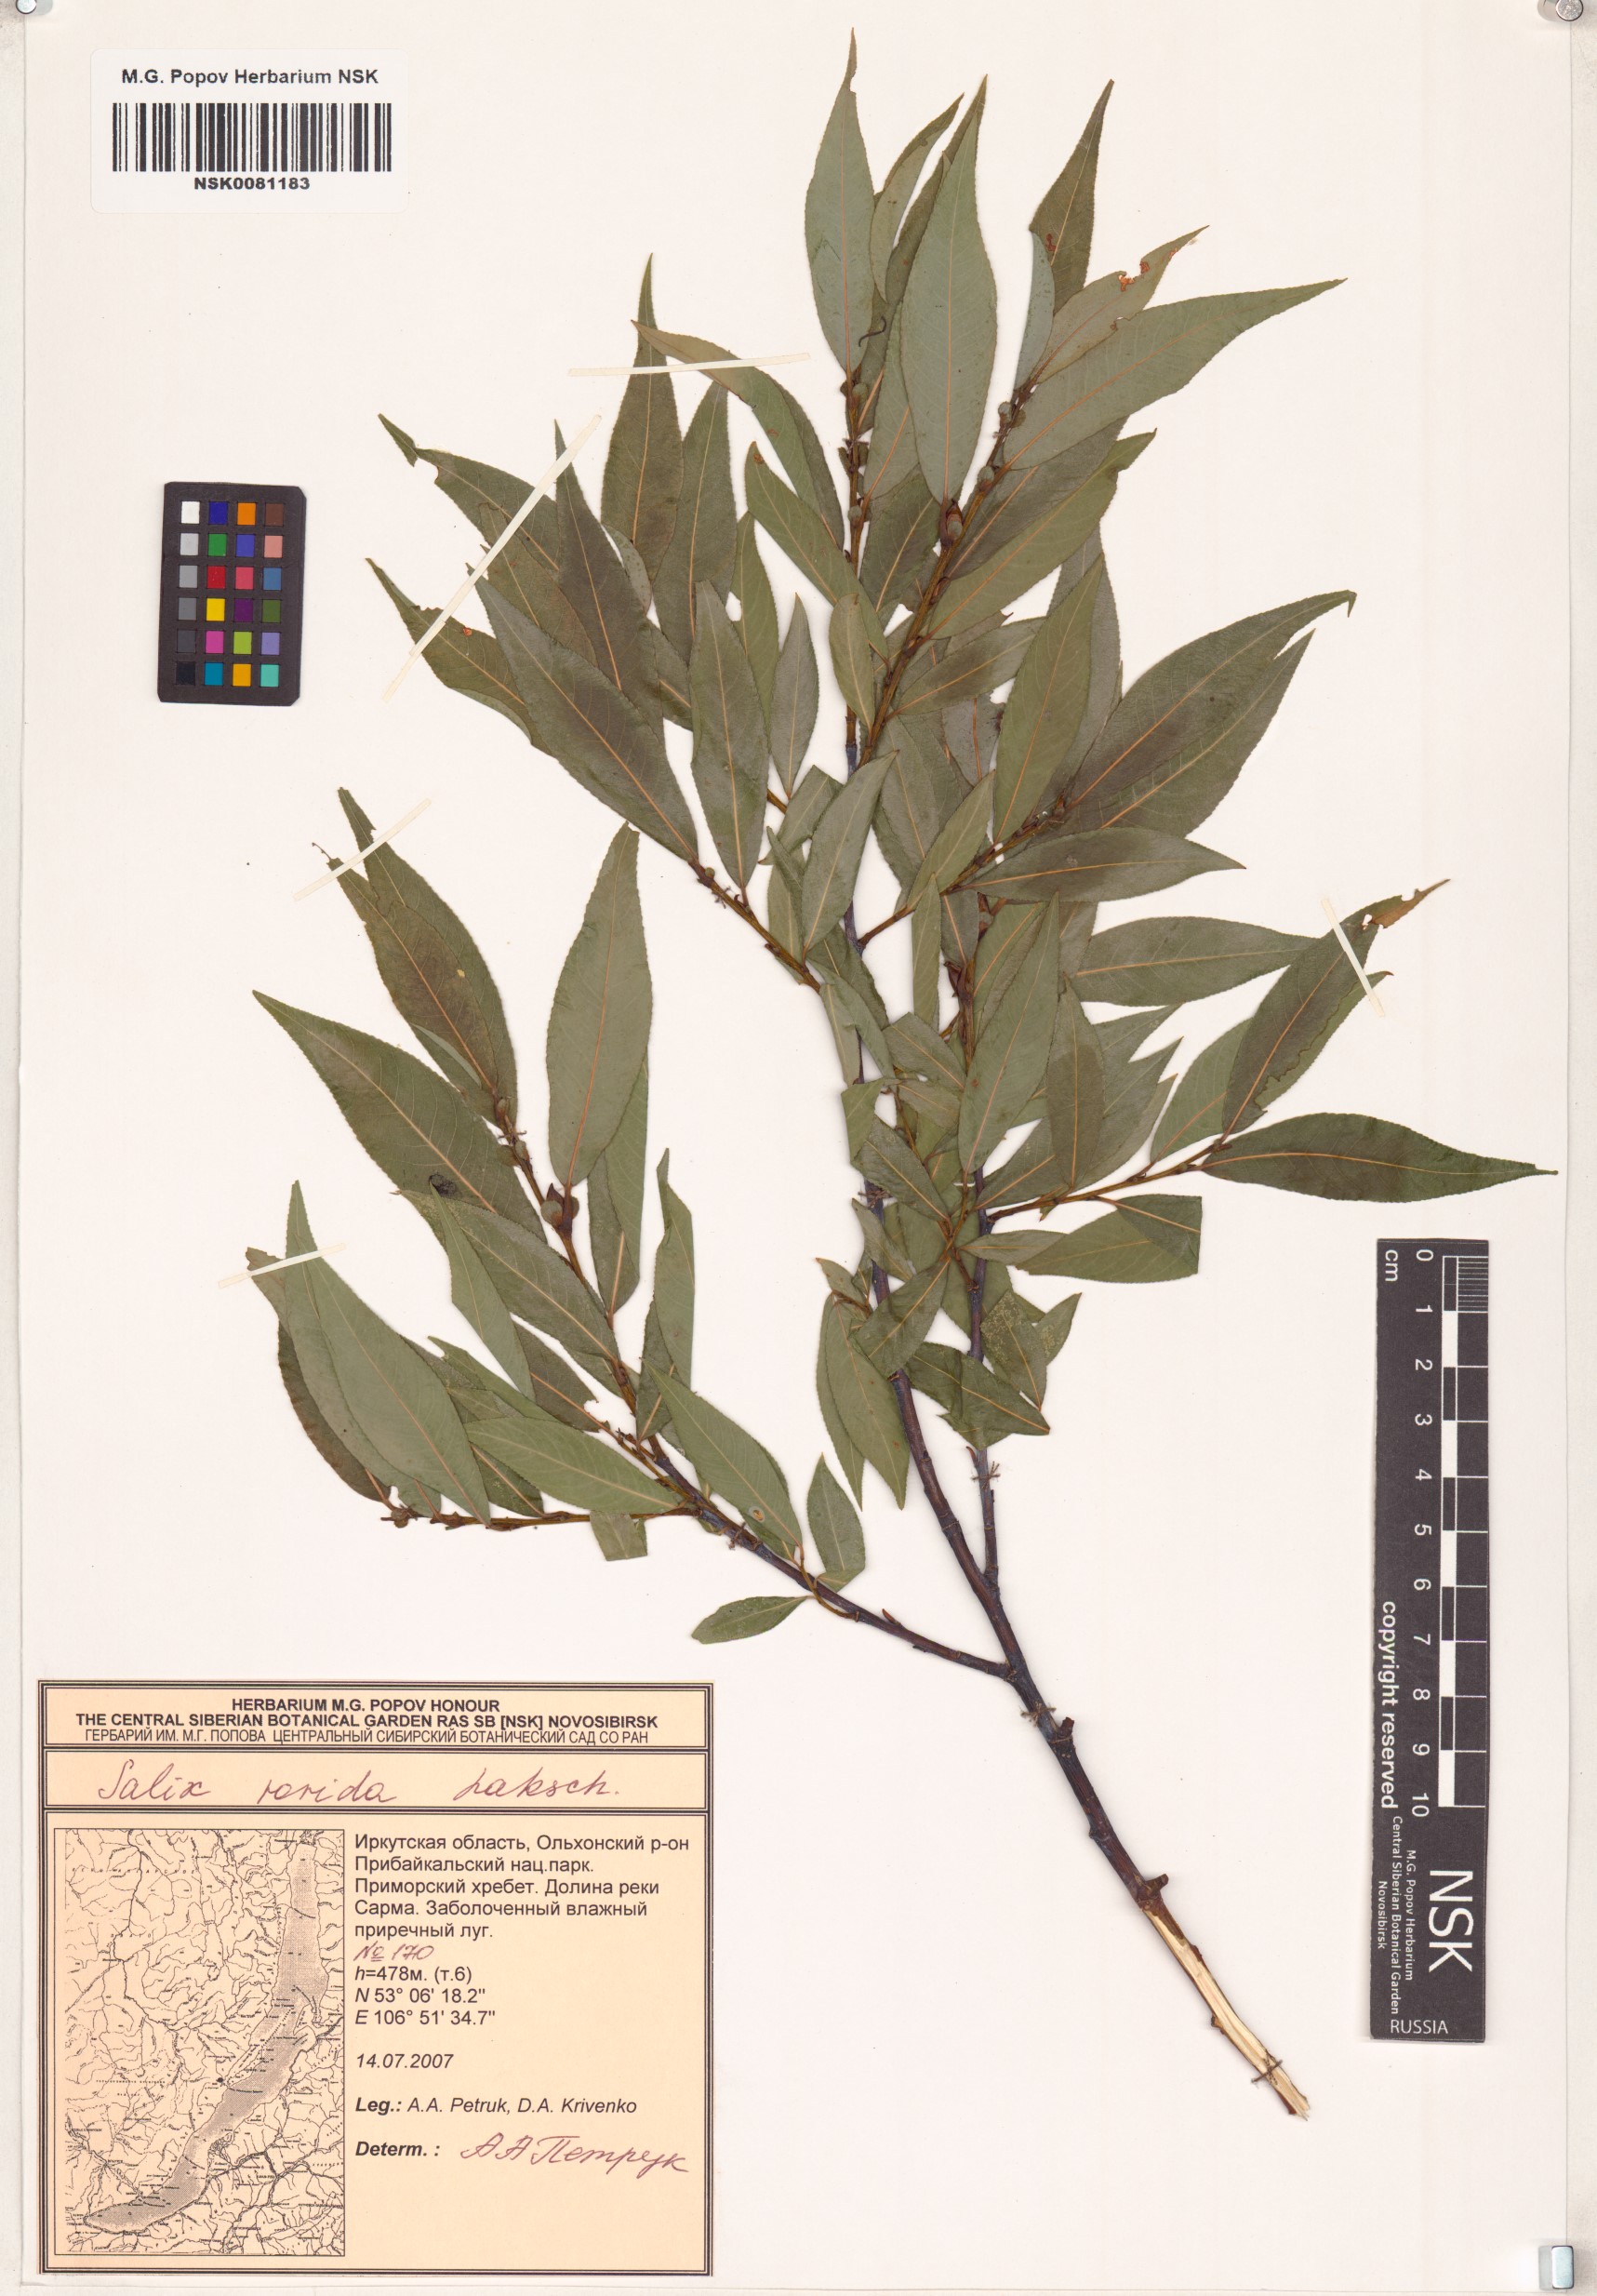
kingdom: Plantae
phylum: Tracheophyta
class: Magnoliopsida
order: Malpighiales
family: Salicaceae
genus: Salix
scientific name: Salix rorida
